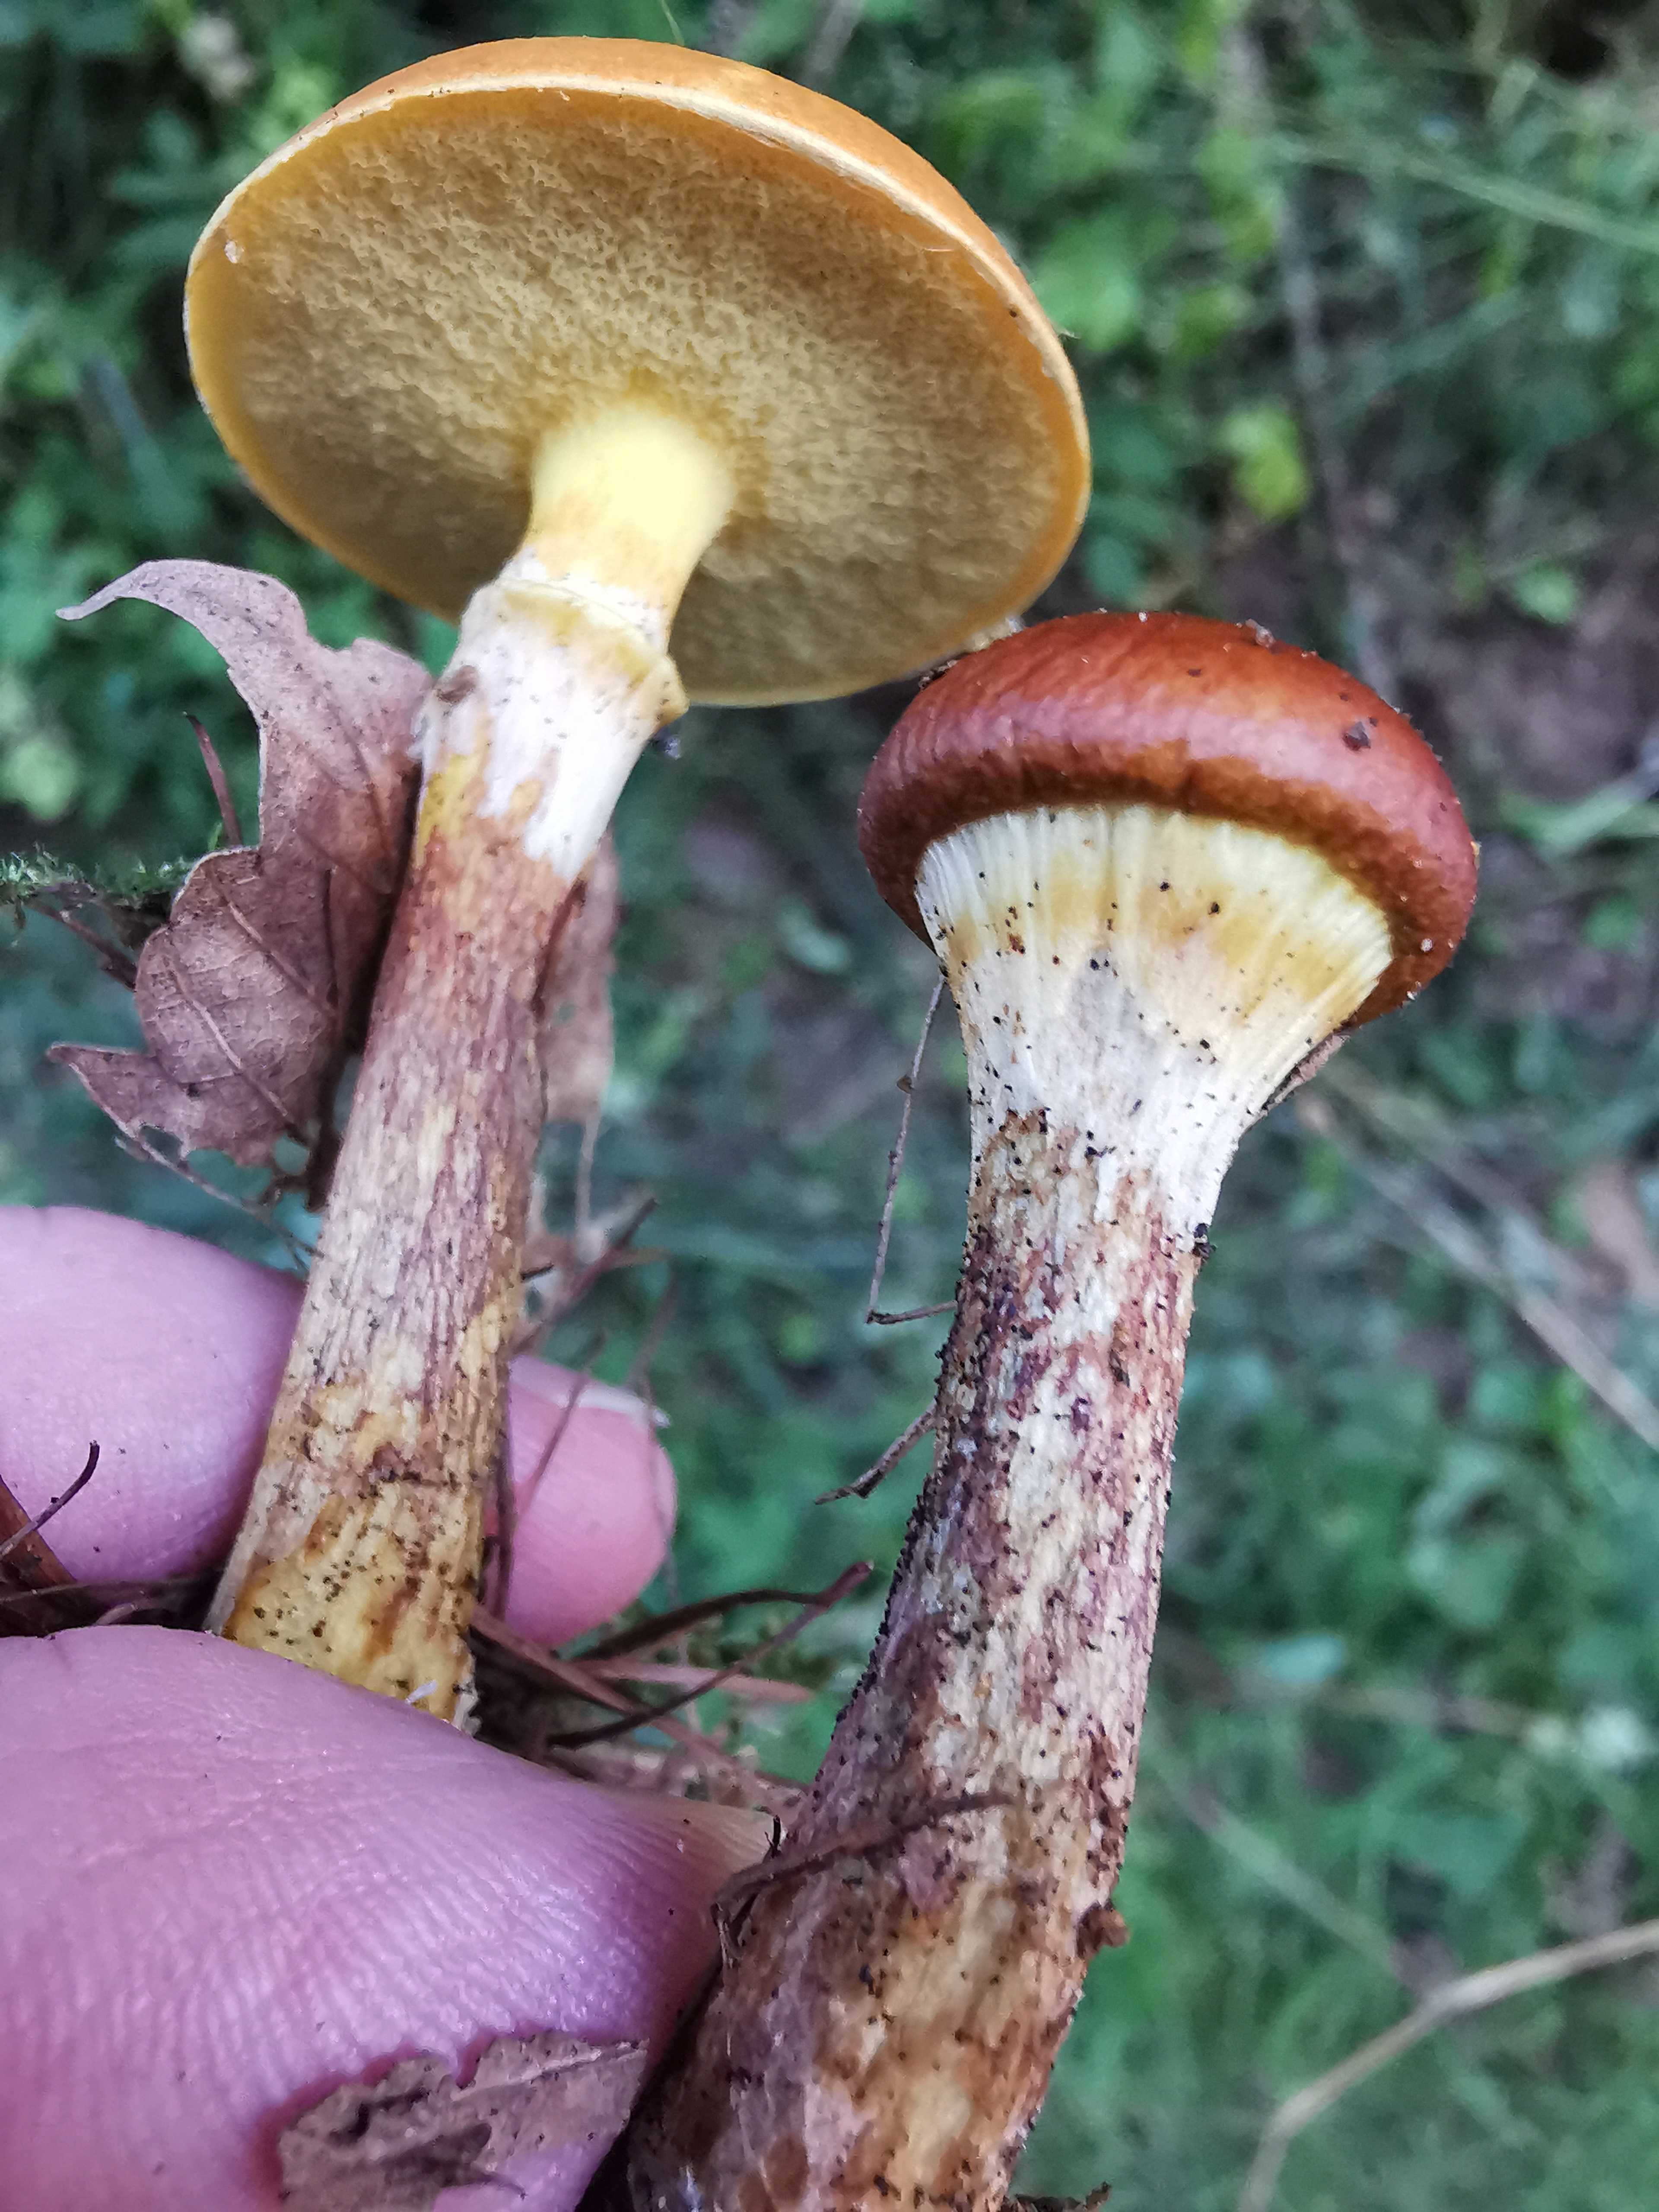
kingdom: Fungi
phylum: Basidiomycota
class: Agaricomycetes
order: Boletales
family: Suillaceae
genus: Suillus
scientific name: Suillus grevillei
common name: lærke-slimrørhat
